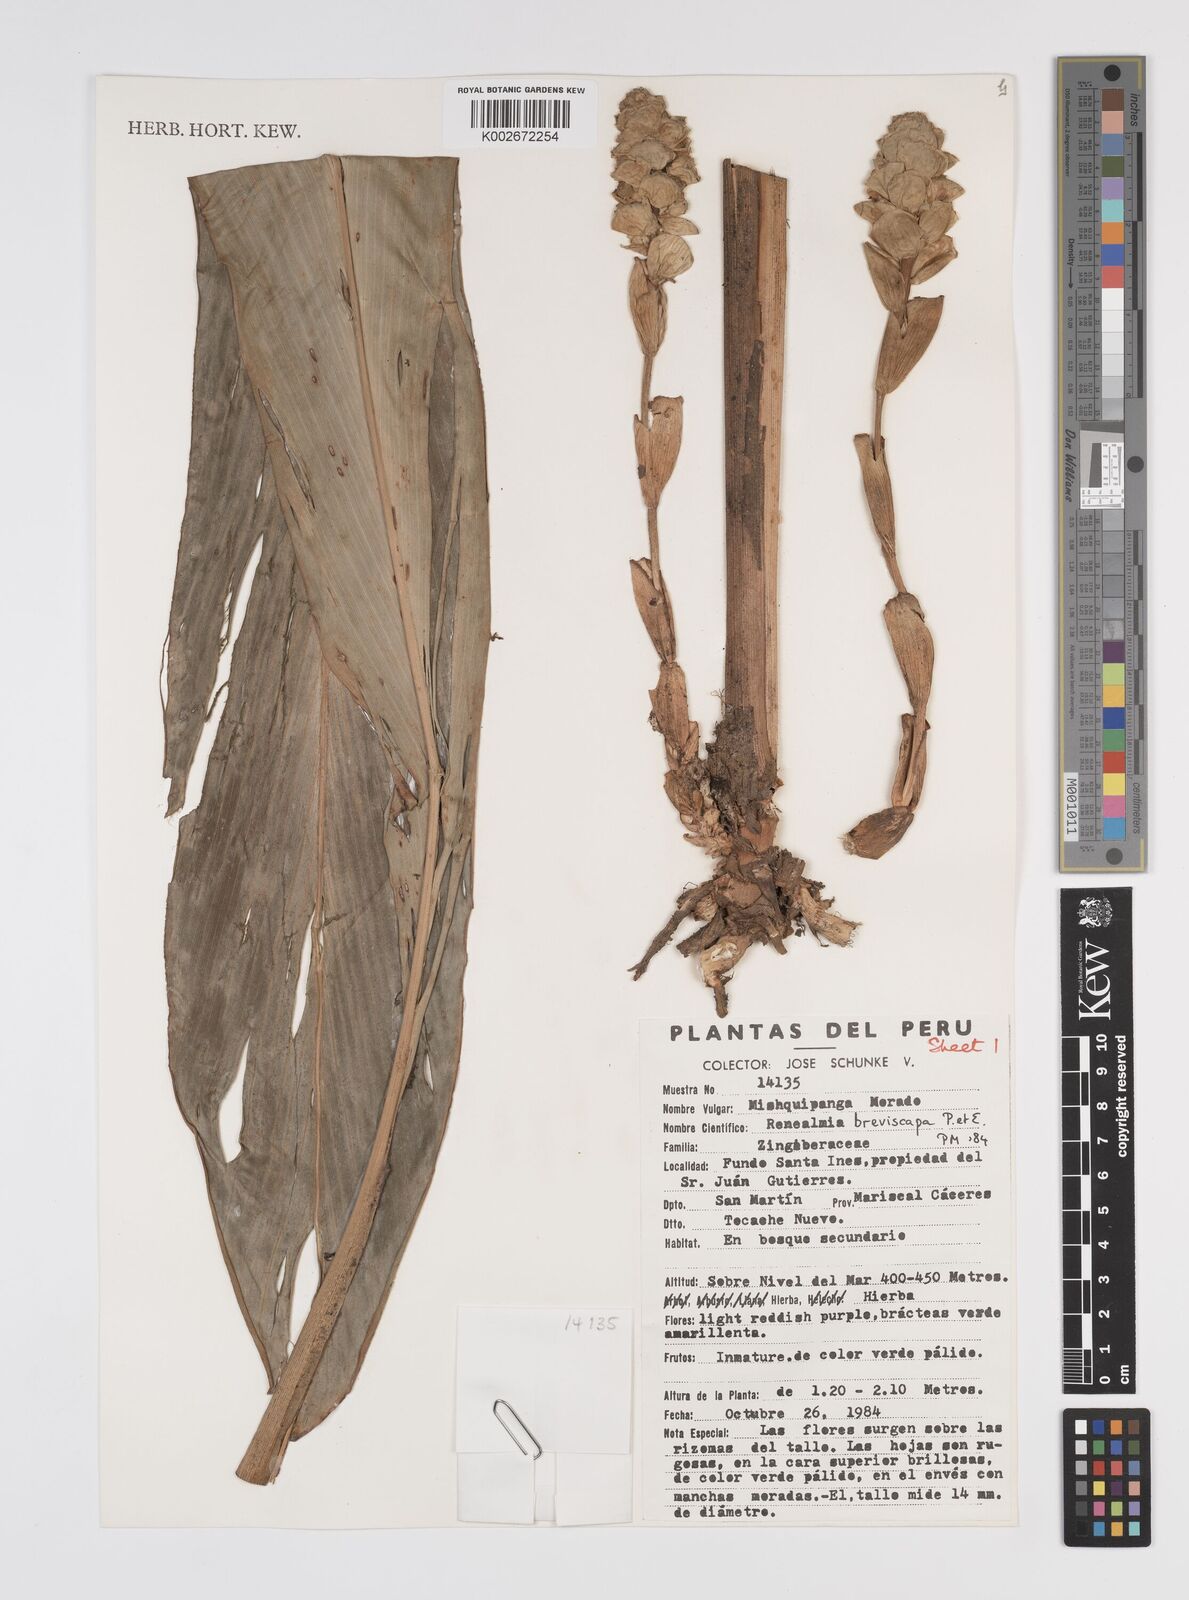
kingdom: Plantae
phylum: Tracheophyta
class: Liliopsida
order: Zingiberales
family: Zingiberaceae
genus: Renealmia
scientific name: Renealmia breviscapa
